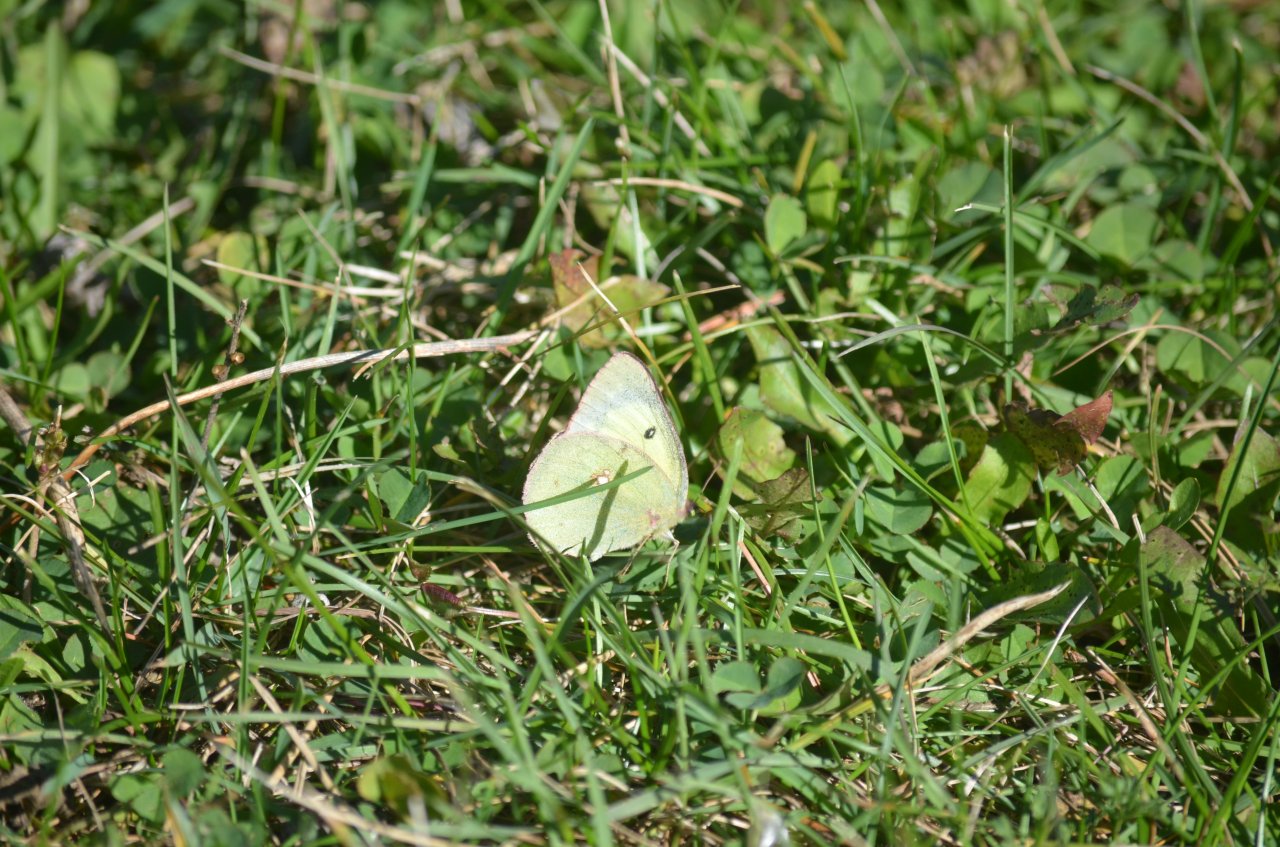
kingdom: Animalia
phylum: Arthropoda
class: Insecta
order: Lepidoptera
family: Pieridae
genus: Colias
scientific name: Colias philodice
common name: Clouded Sulphur
